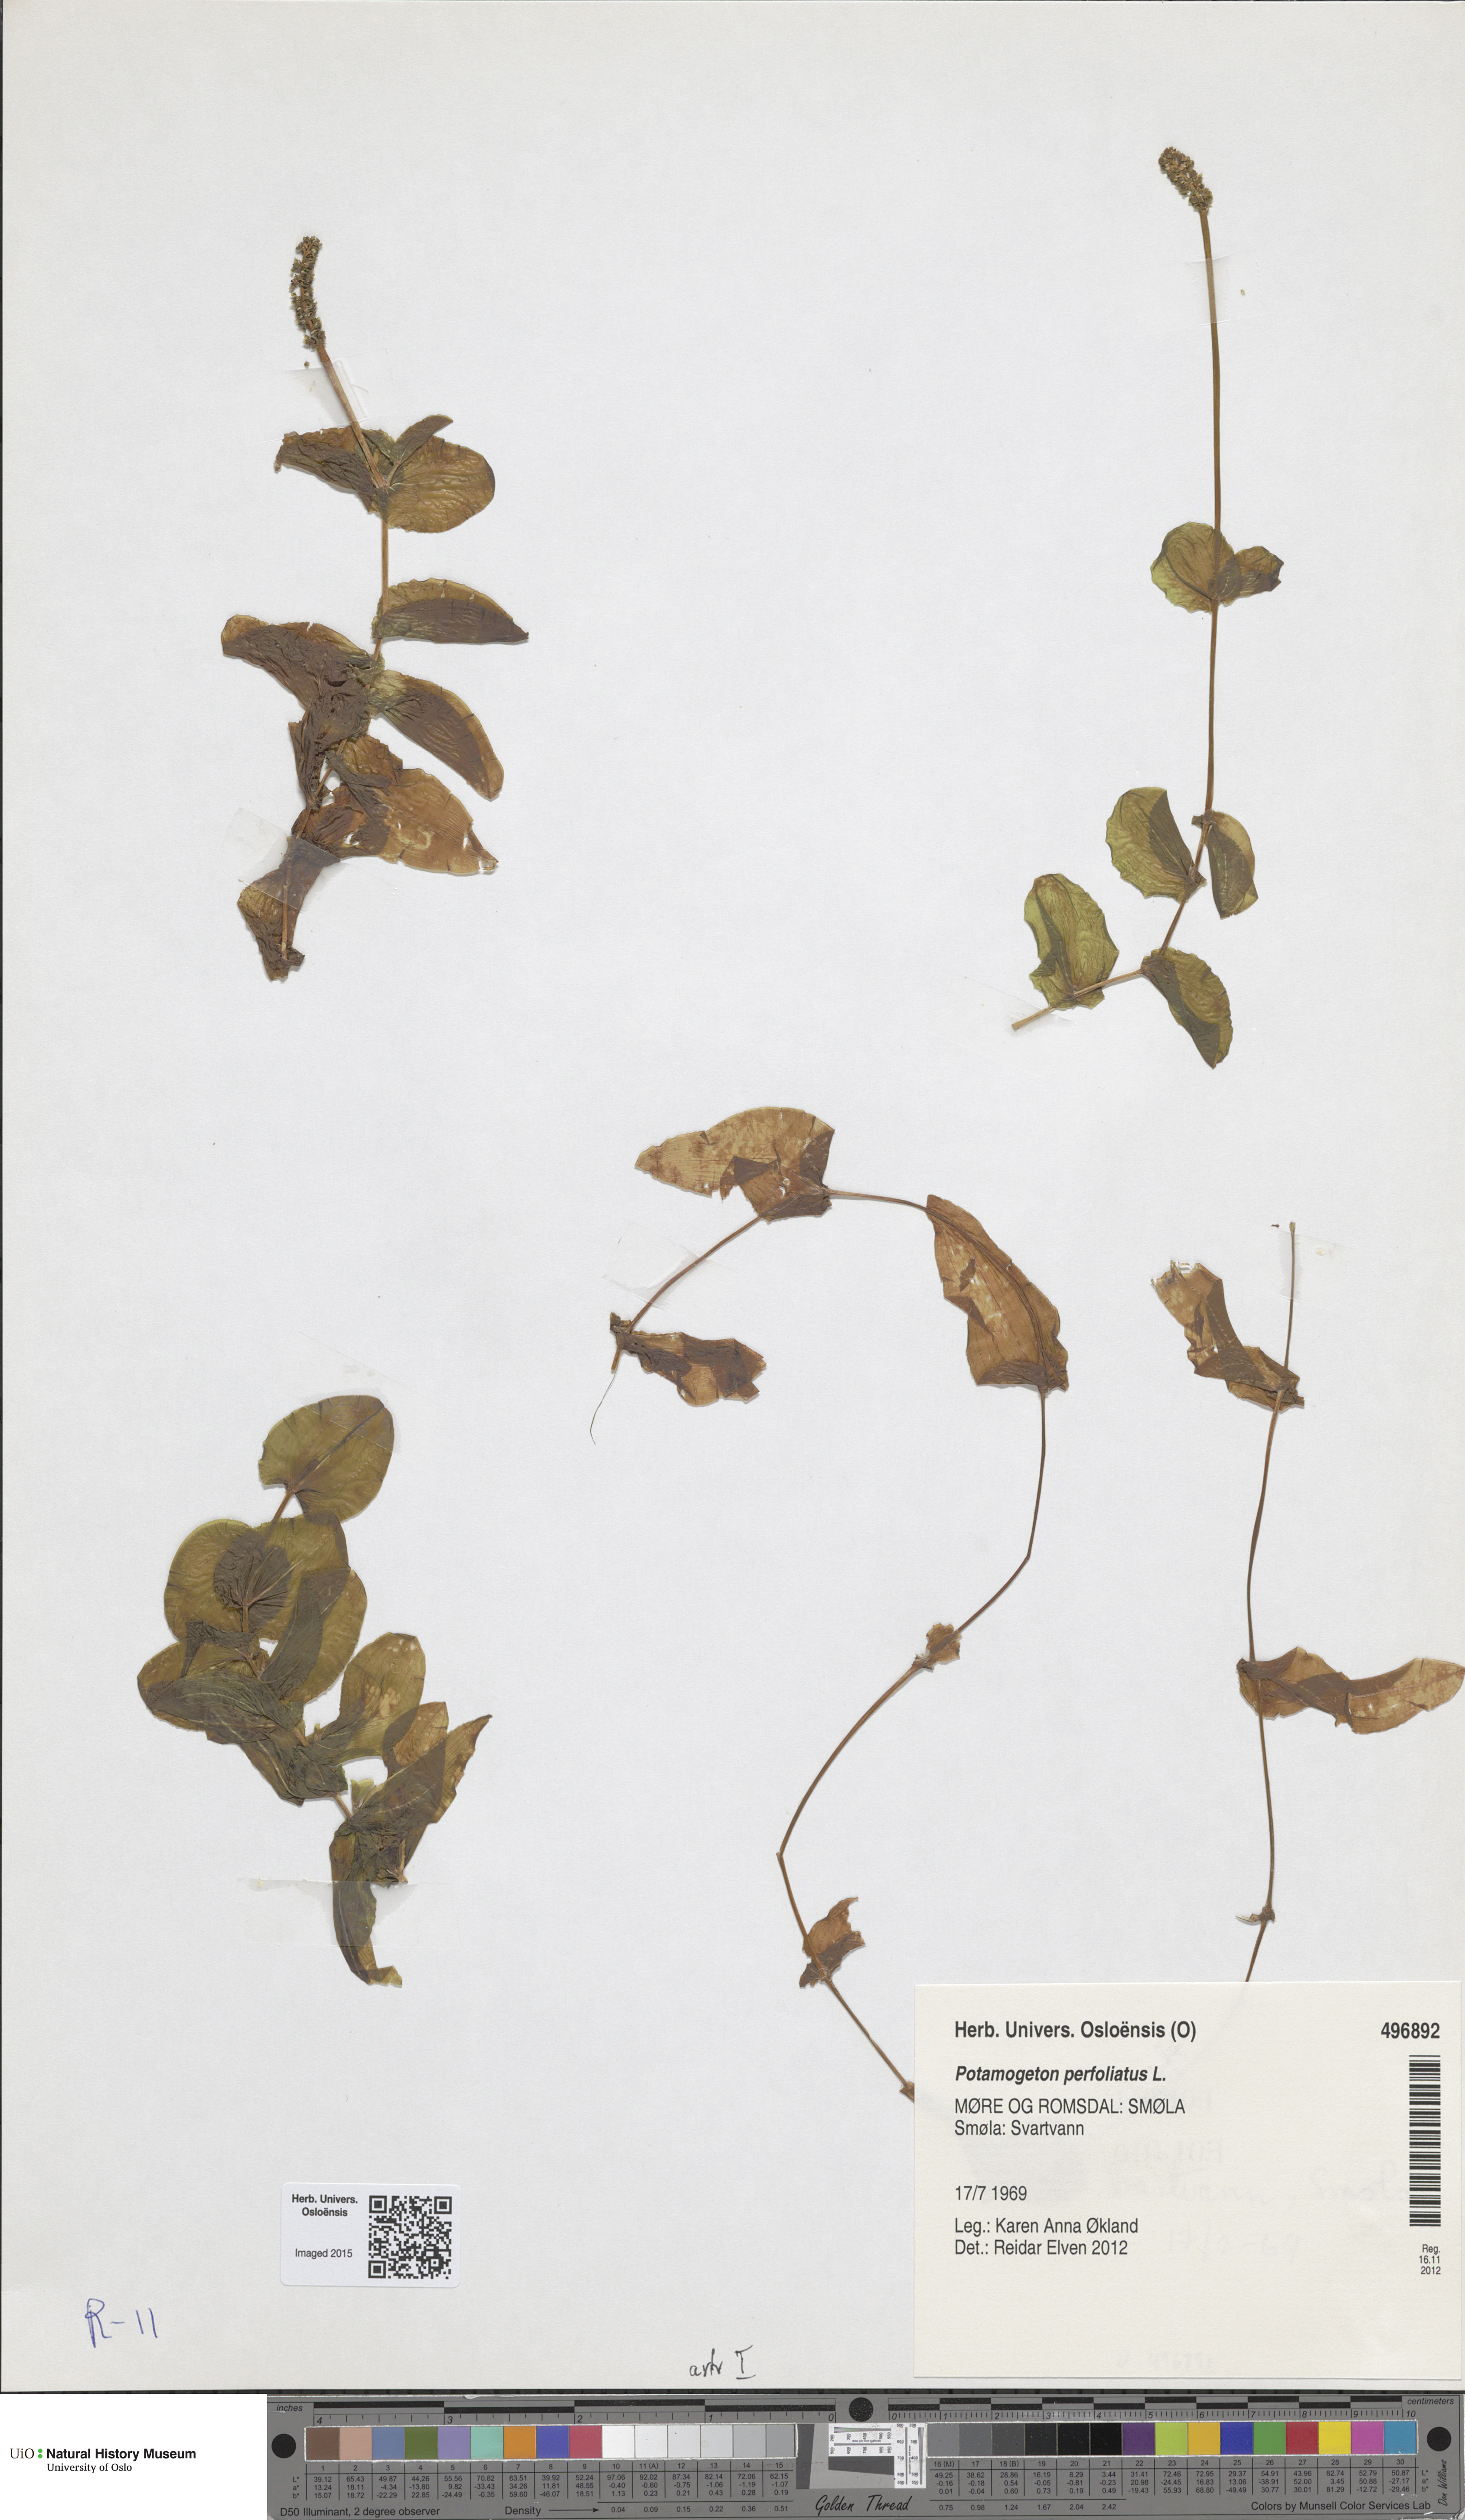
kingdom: Plantae
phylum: Tracheophyta
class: Liliopsida
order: Alismatales
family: Potamogetonaceae
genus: Potamogeton
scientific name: Potamogeton perfoliatus
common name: Perfoliate pondweed
